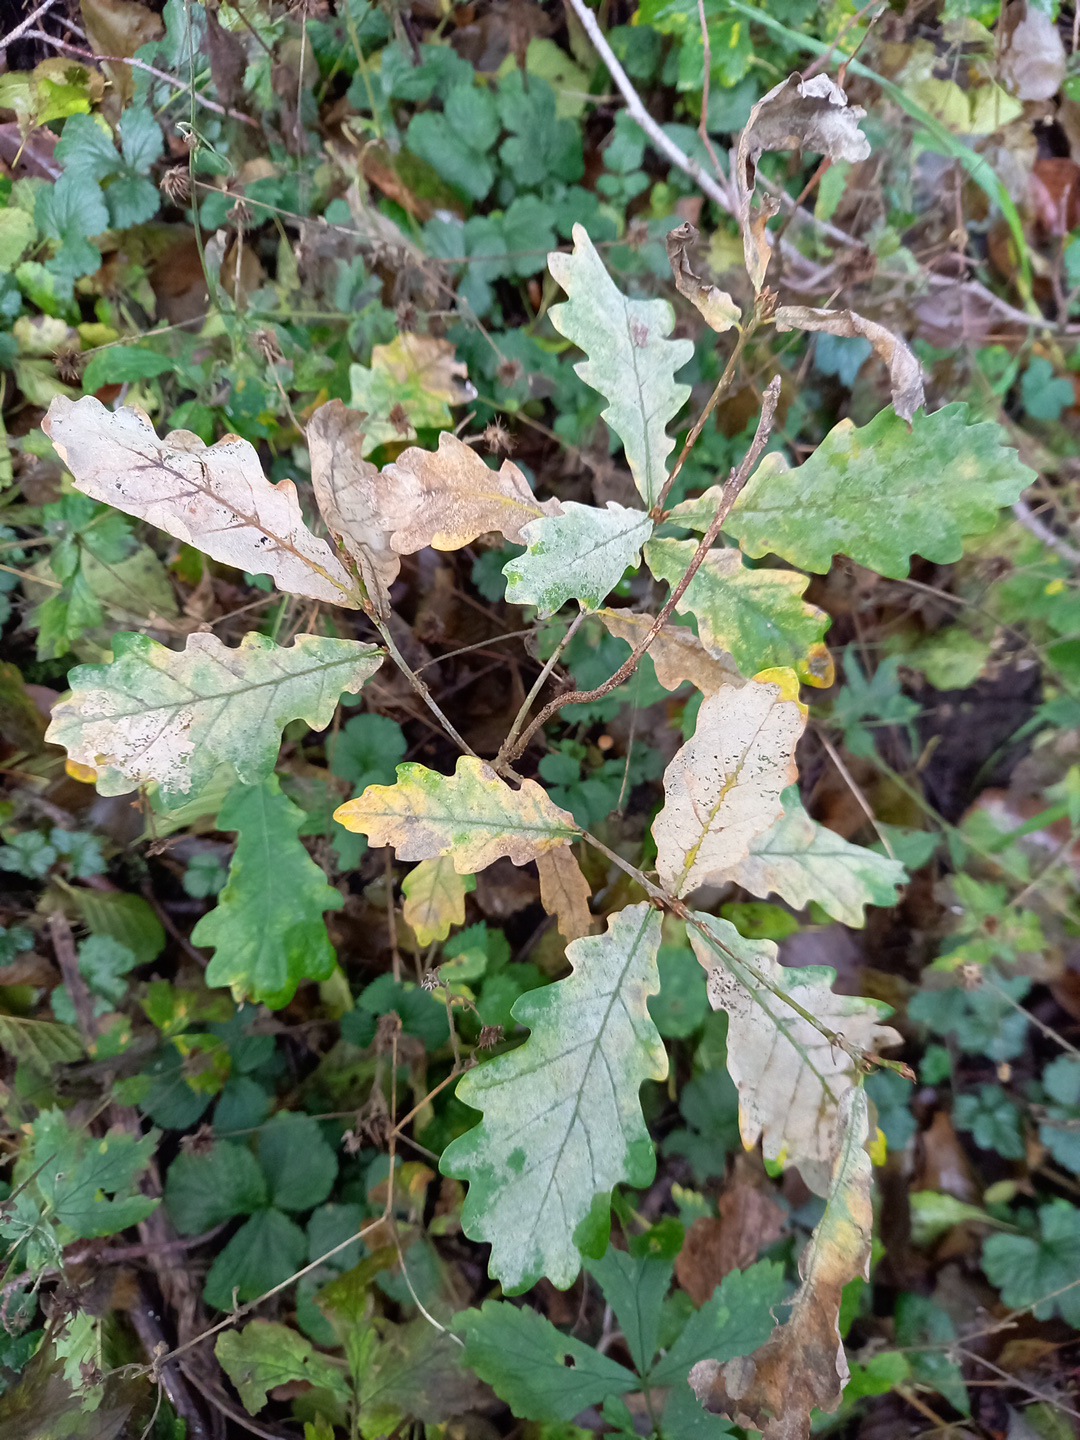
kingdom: Fungi
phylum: Ascomycota
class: Leotiomycetes
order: Helotiales
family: Erysiphaceae
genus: Erysiphe
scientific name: Erysiphe alphitoides
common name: ege-meldug
